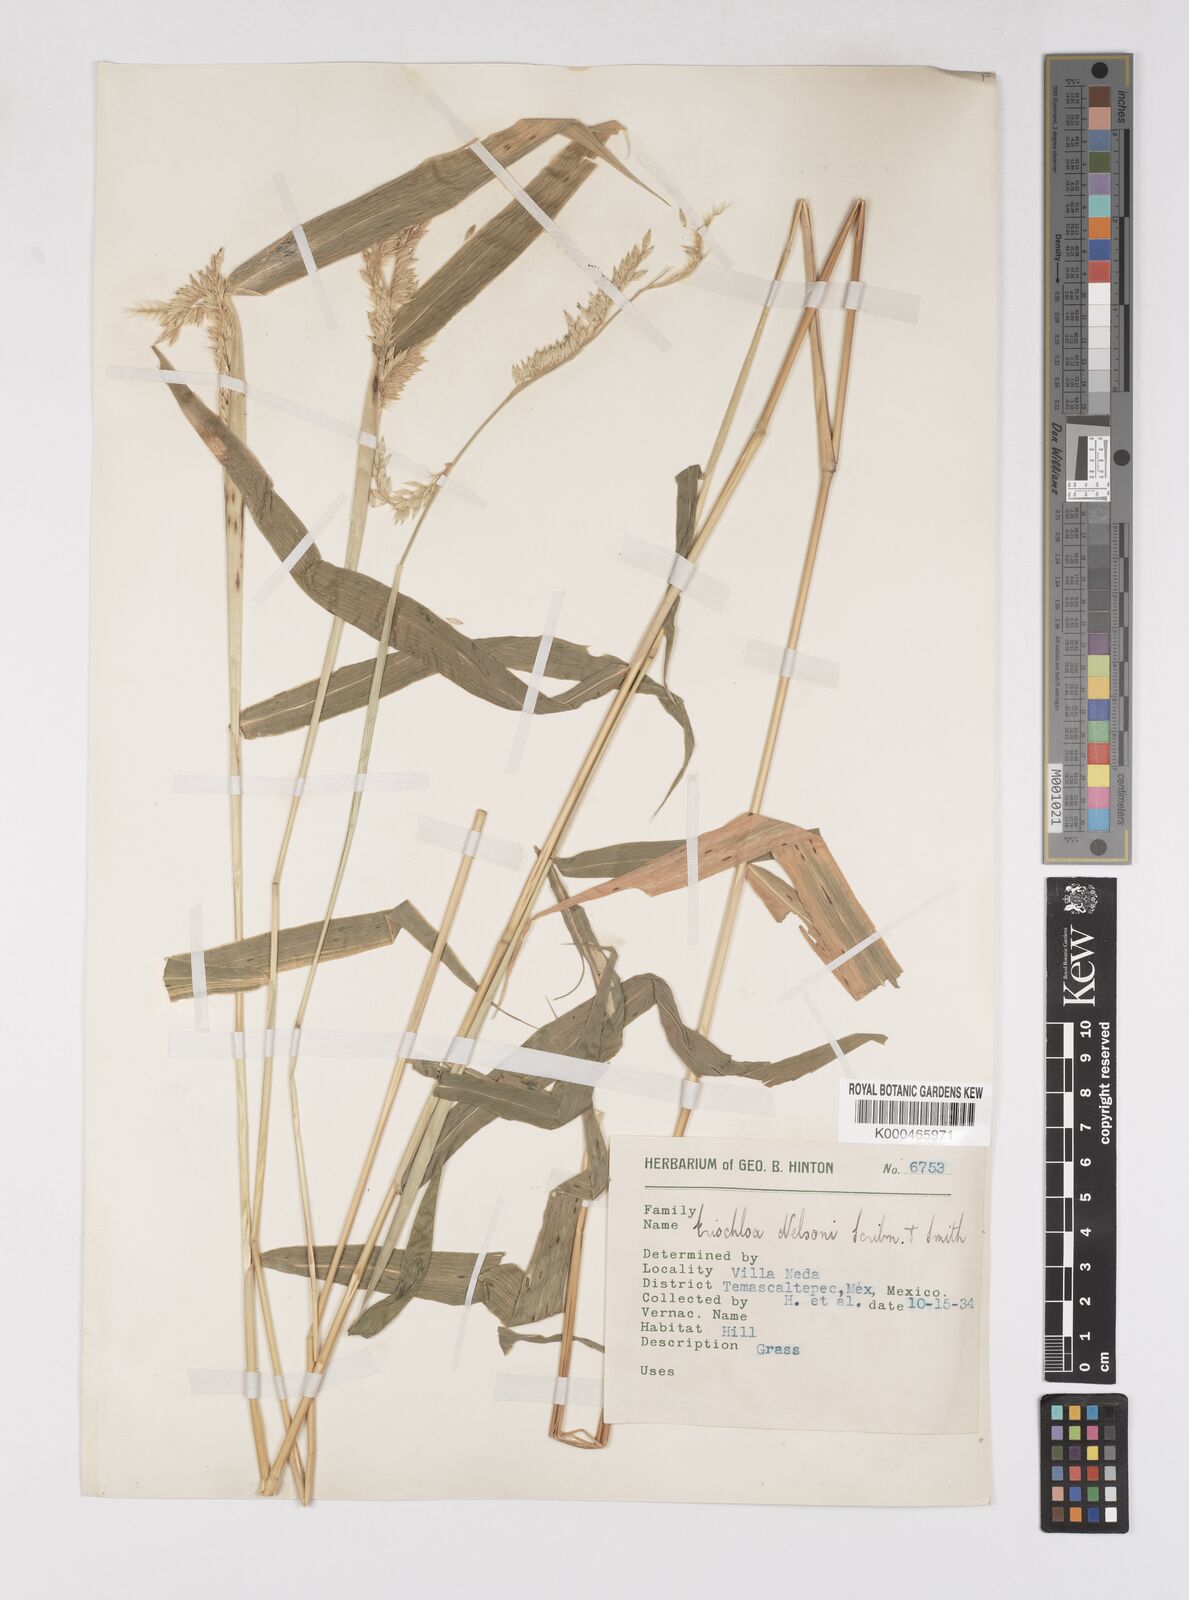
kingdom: Plantae
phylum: Tracheophyta
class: Liliopsida
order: Poales
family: Poaceae
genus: Eriochloa
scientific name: Eriochloa nelsonii
